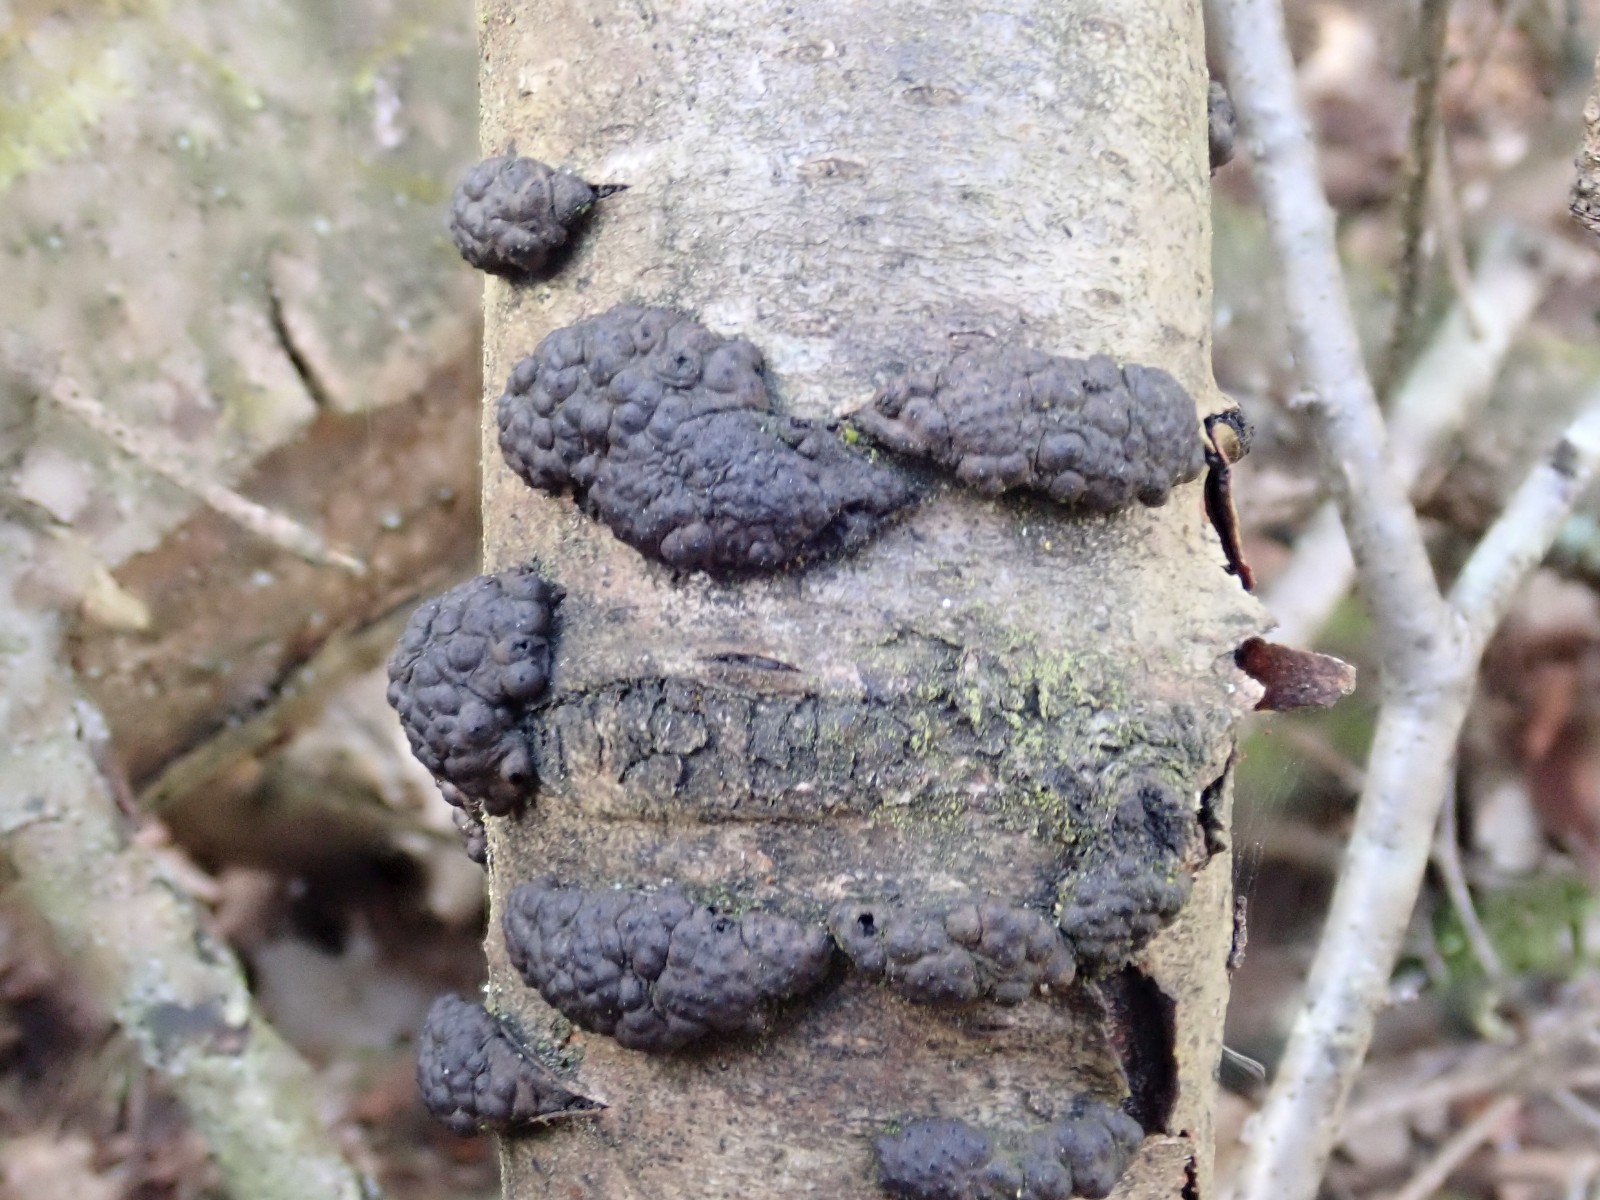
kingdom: Fungi
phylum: Ascomycota
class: Sordariomycetes
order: Xylariales
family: Hypoxylaceae
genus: Jackrogersella
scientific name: Jackrogersella multiformis
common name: foranderlig kulbær
